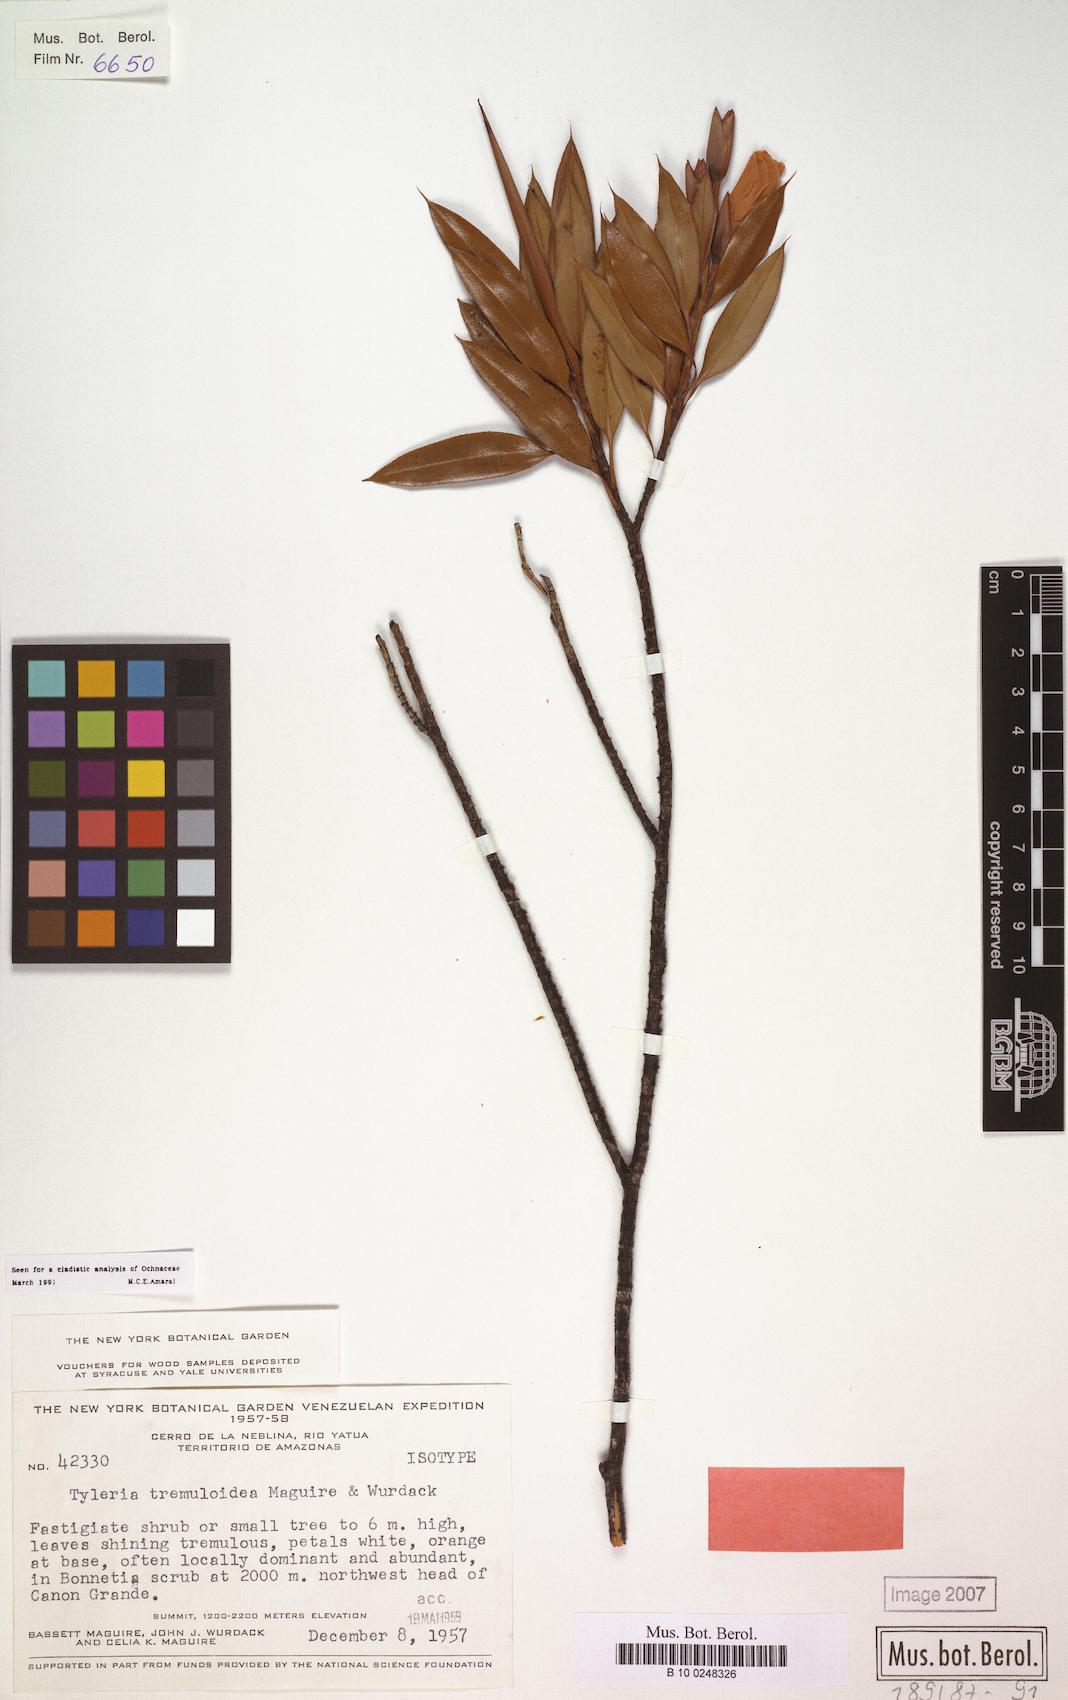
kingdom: Plantae
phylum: Tracheophyta
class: Magnoliopsida
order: Malpighiales
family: Ochnaceae
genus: Tyleria
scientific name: Tyleria tremuloidea
